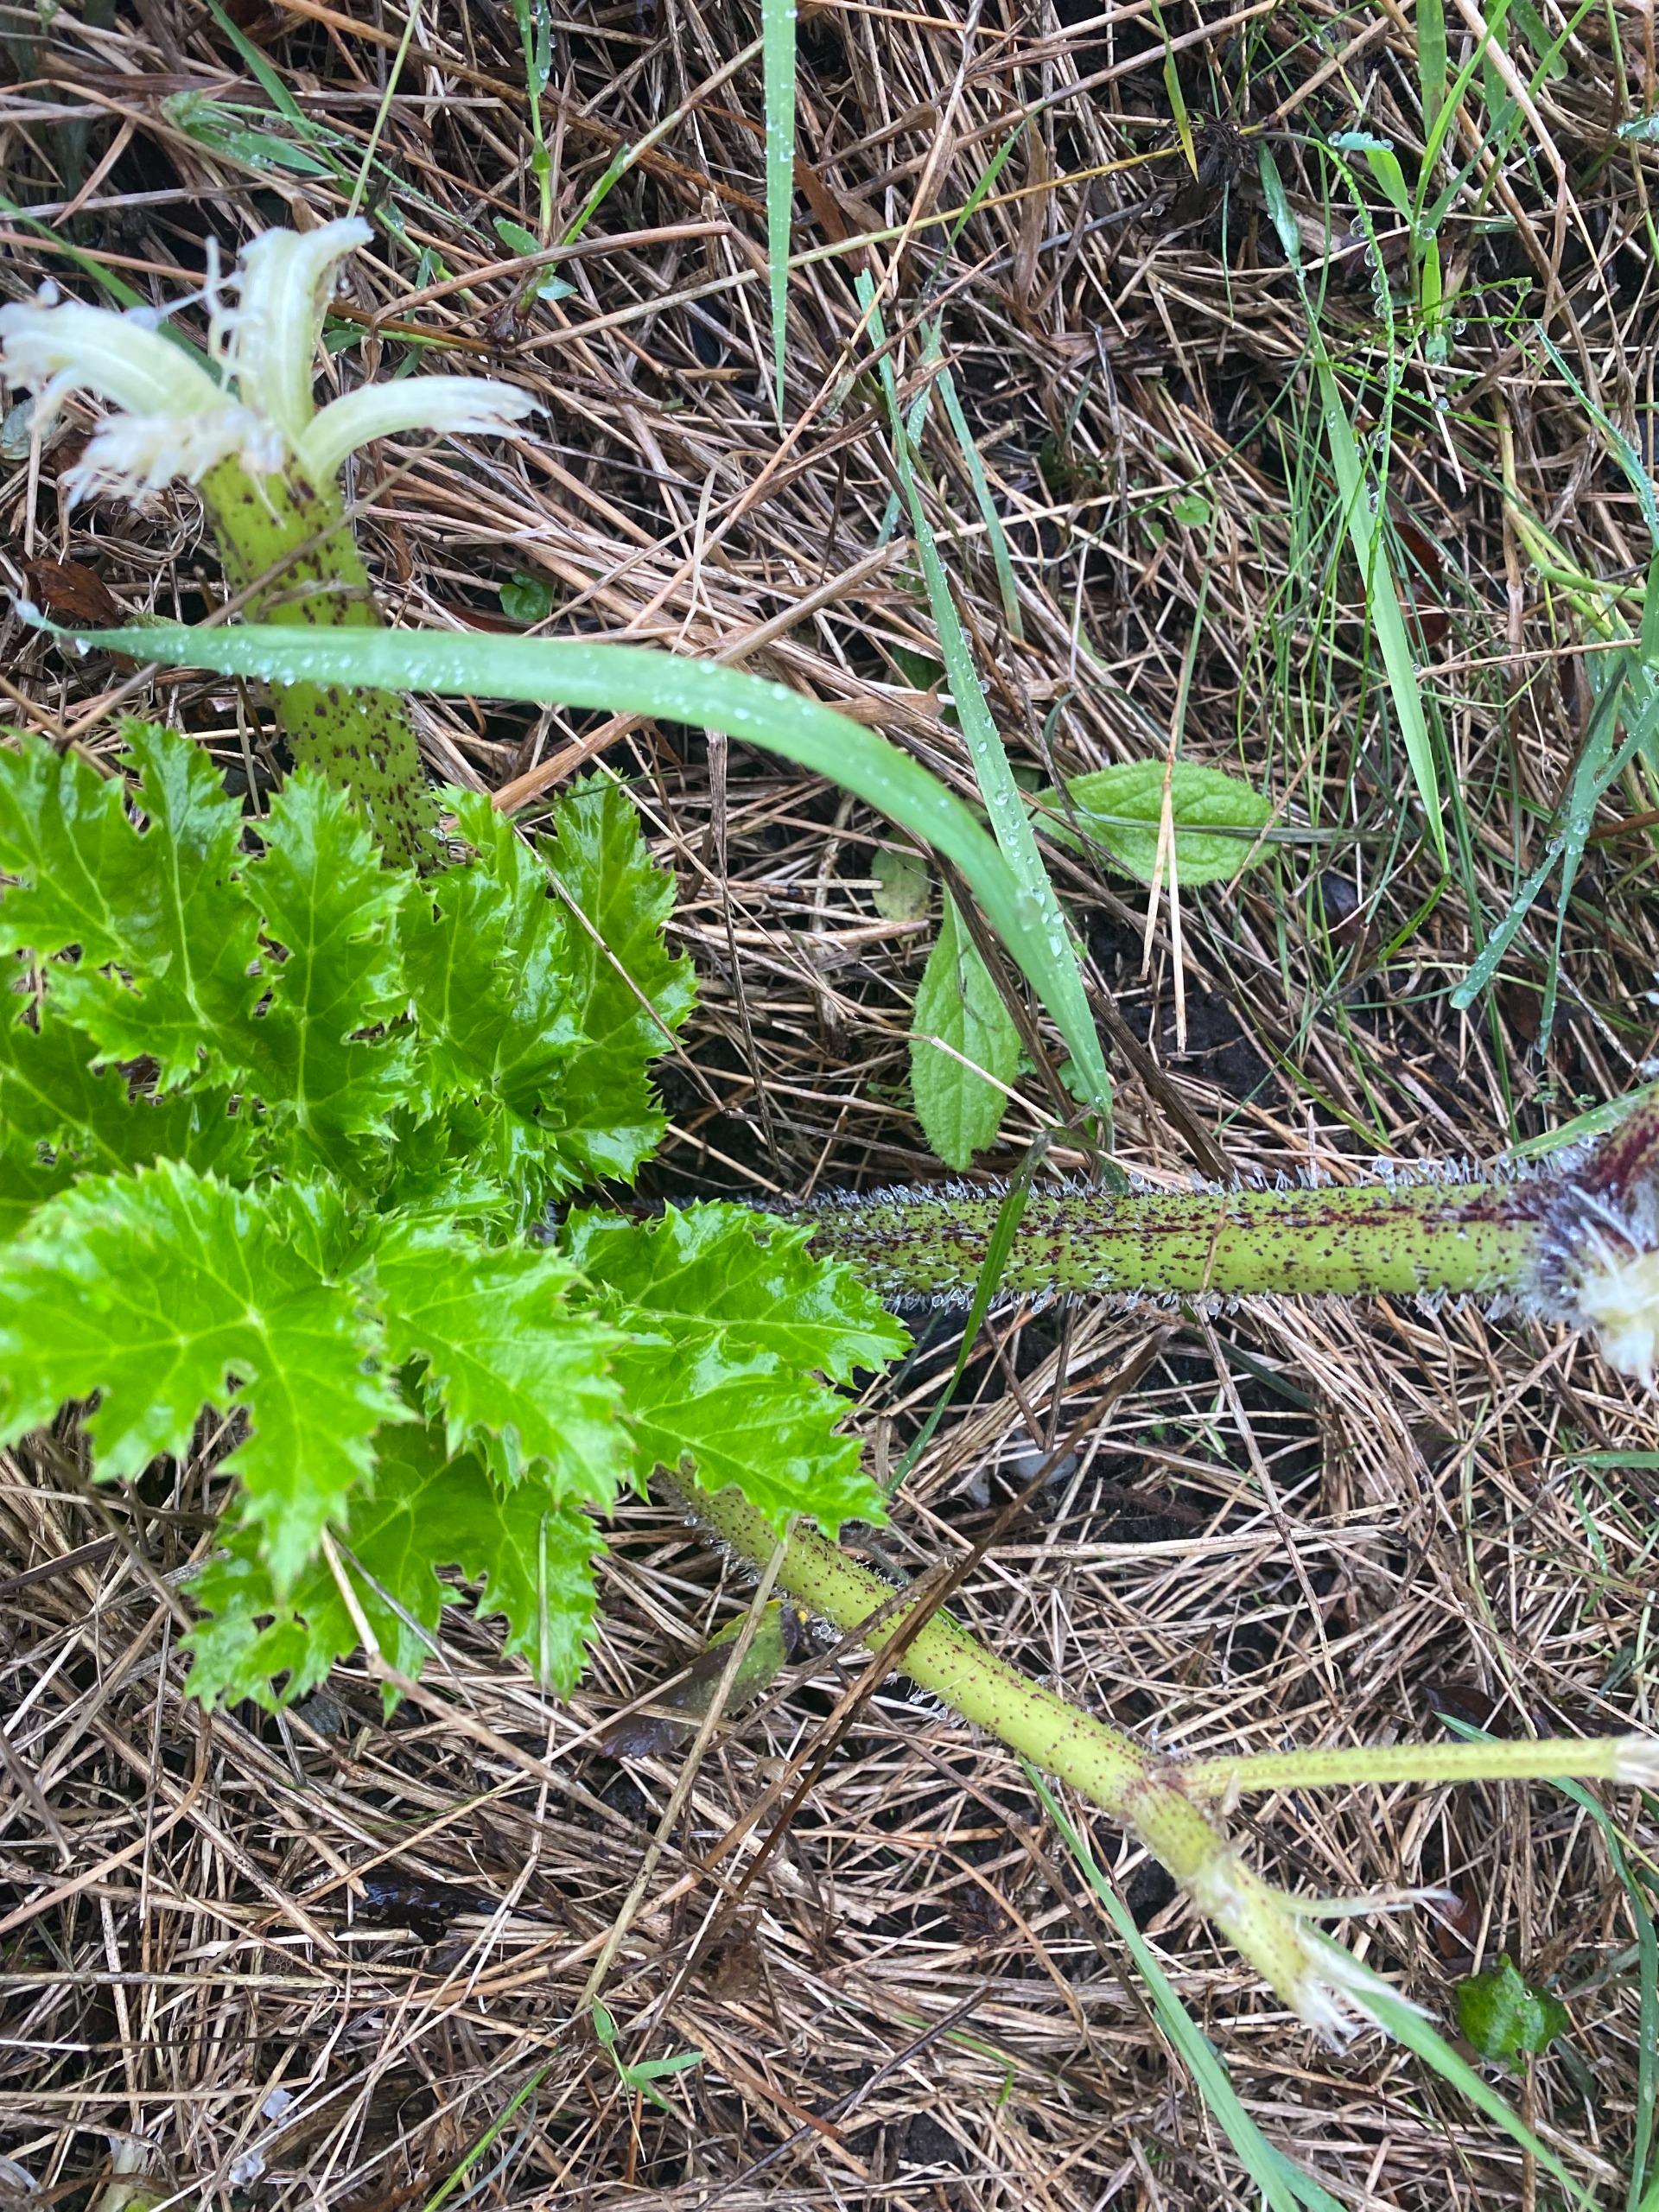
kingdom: Plantae
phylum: Tracheophyta
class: Magnoliopsida
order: Apiales
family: Apiaceae
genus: Heracleum
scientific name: Heracleum mantegazzianum
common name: Kæmpe-bjørneklo
